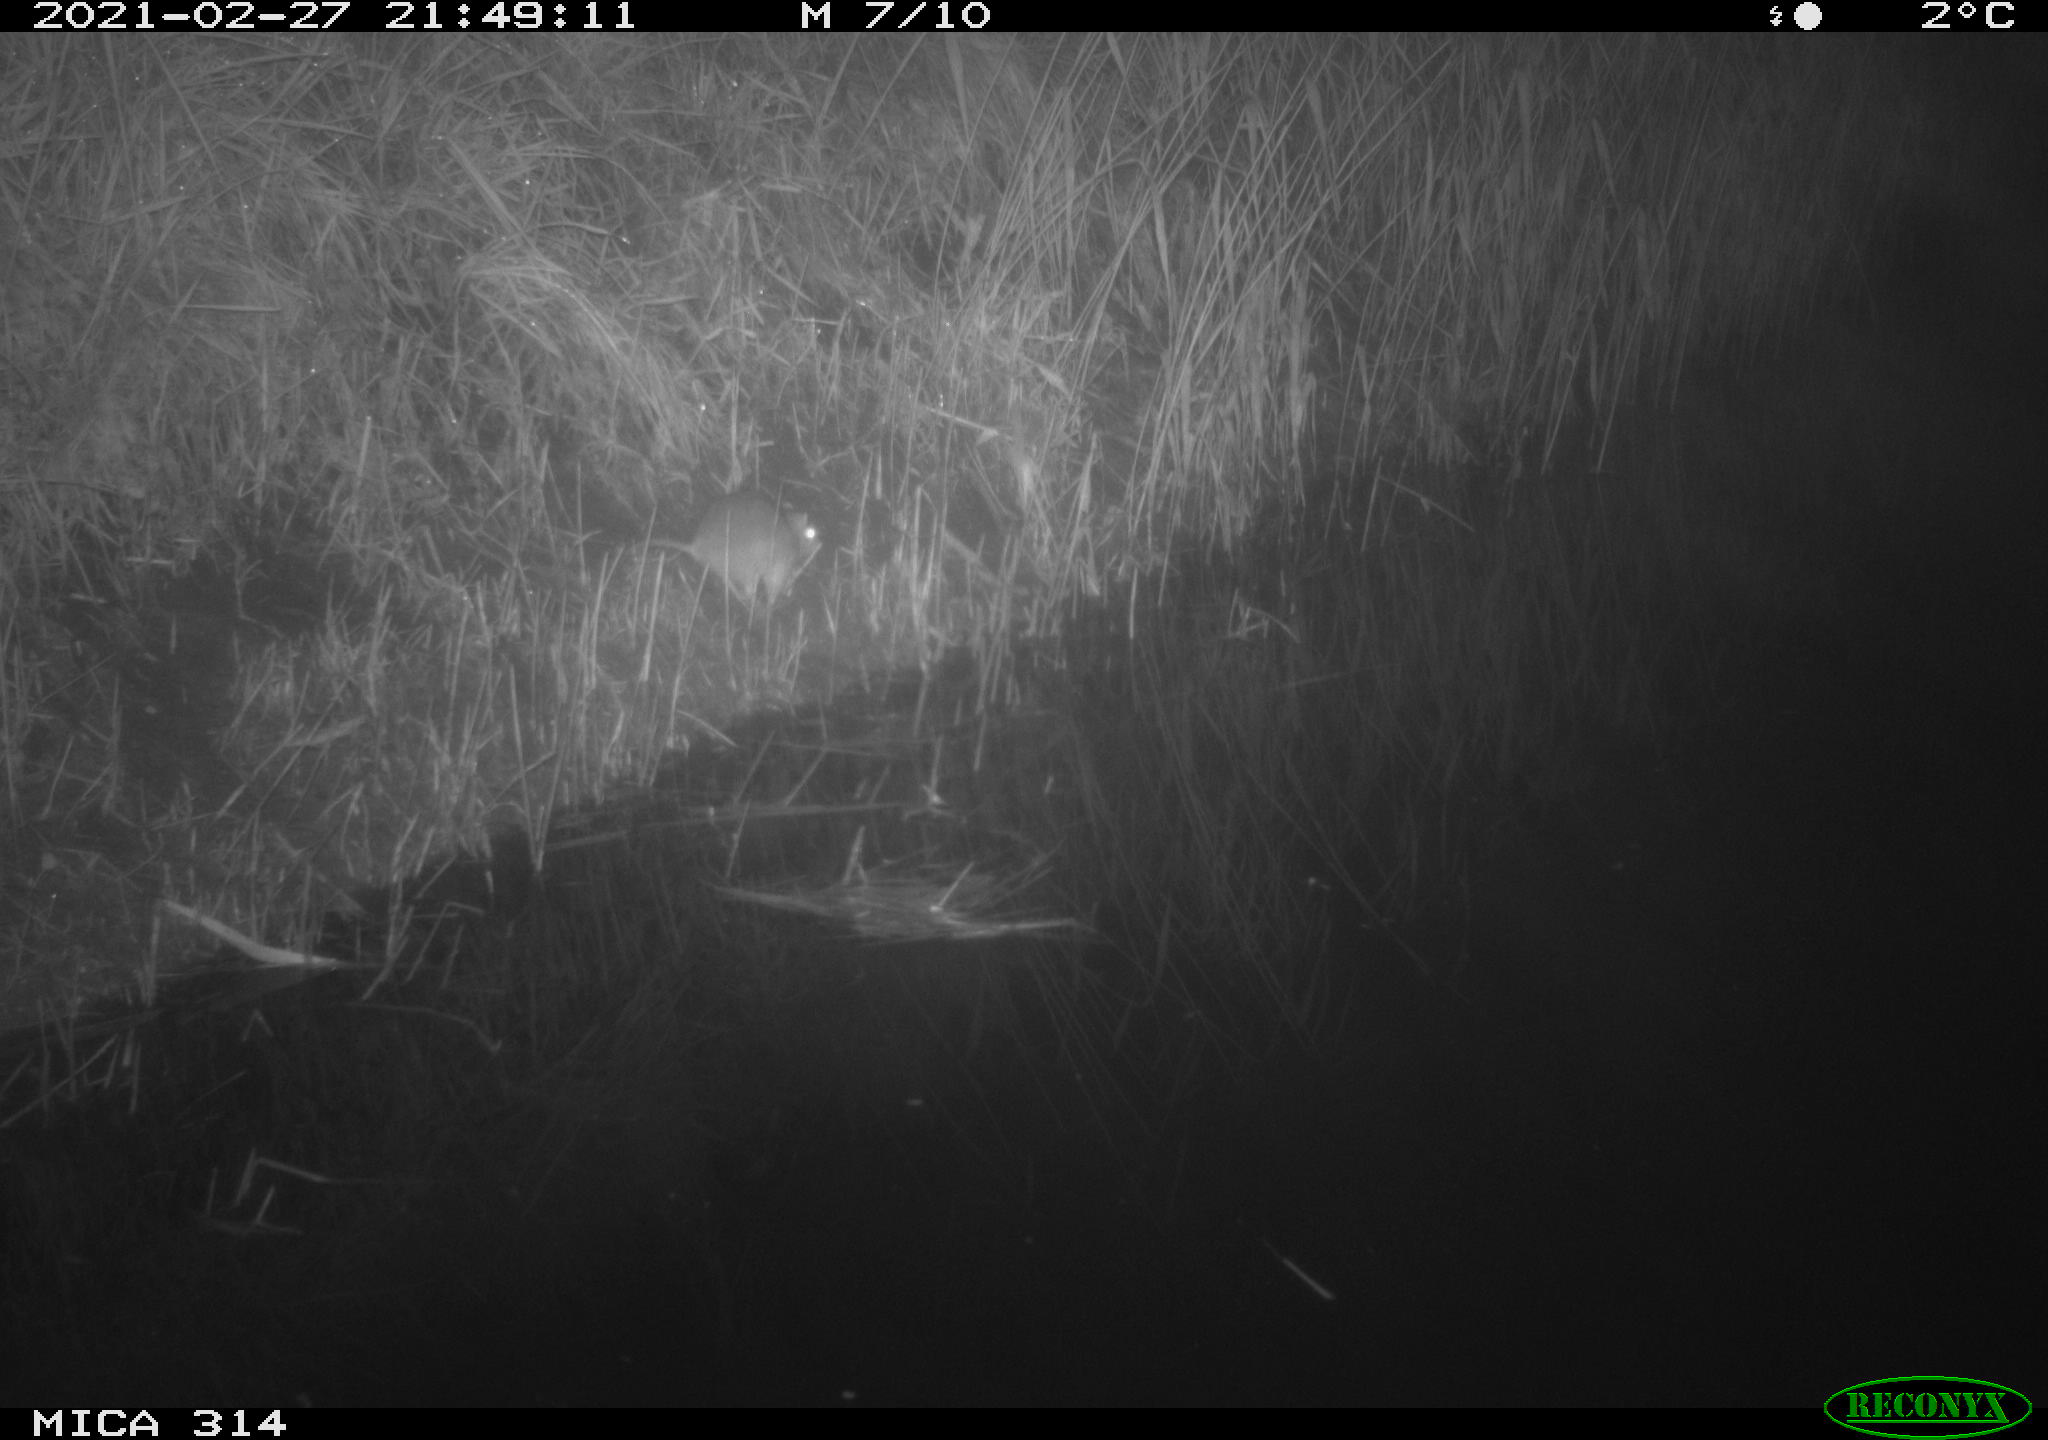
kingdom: Animalia
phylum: Chordata
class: Mammalia
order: Rodentia
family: Muridae
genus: Rattus
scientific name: Rattus norvegicus
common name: Brown rat
